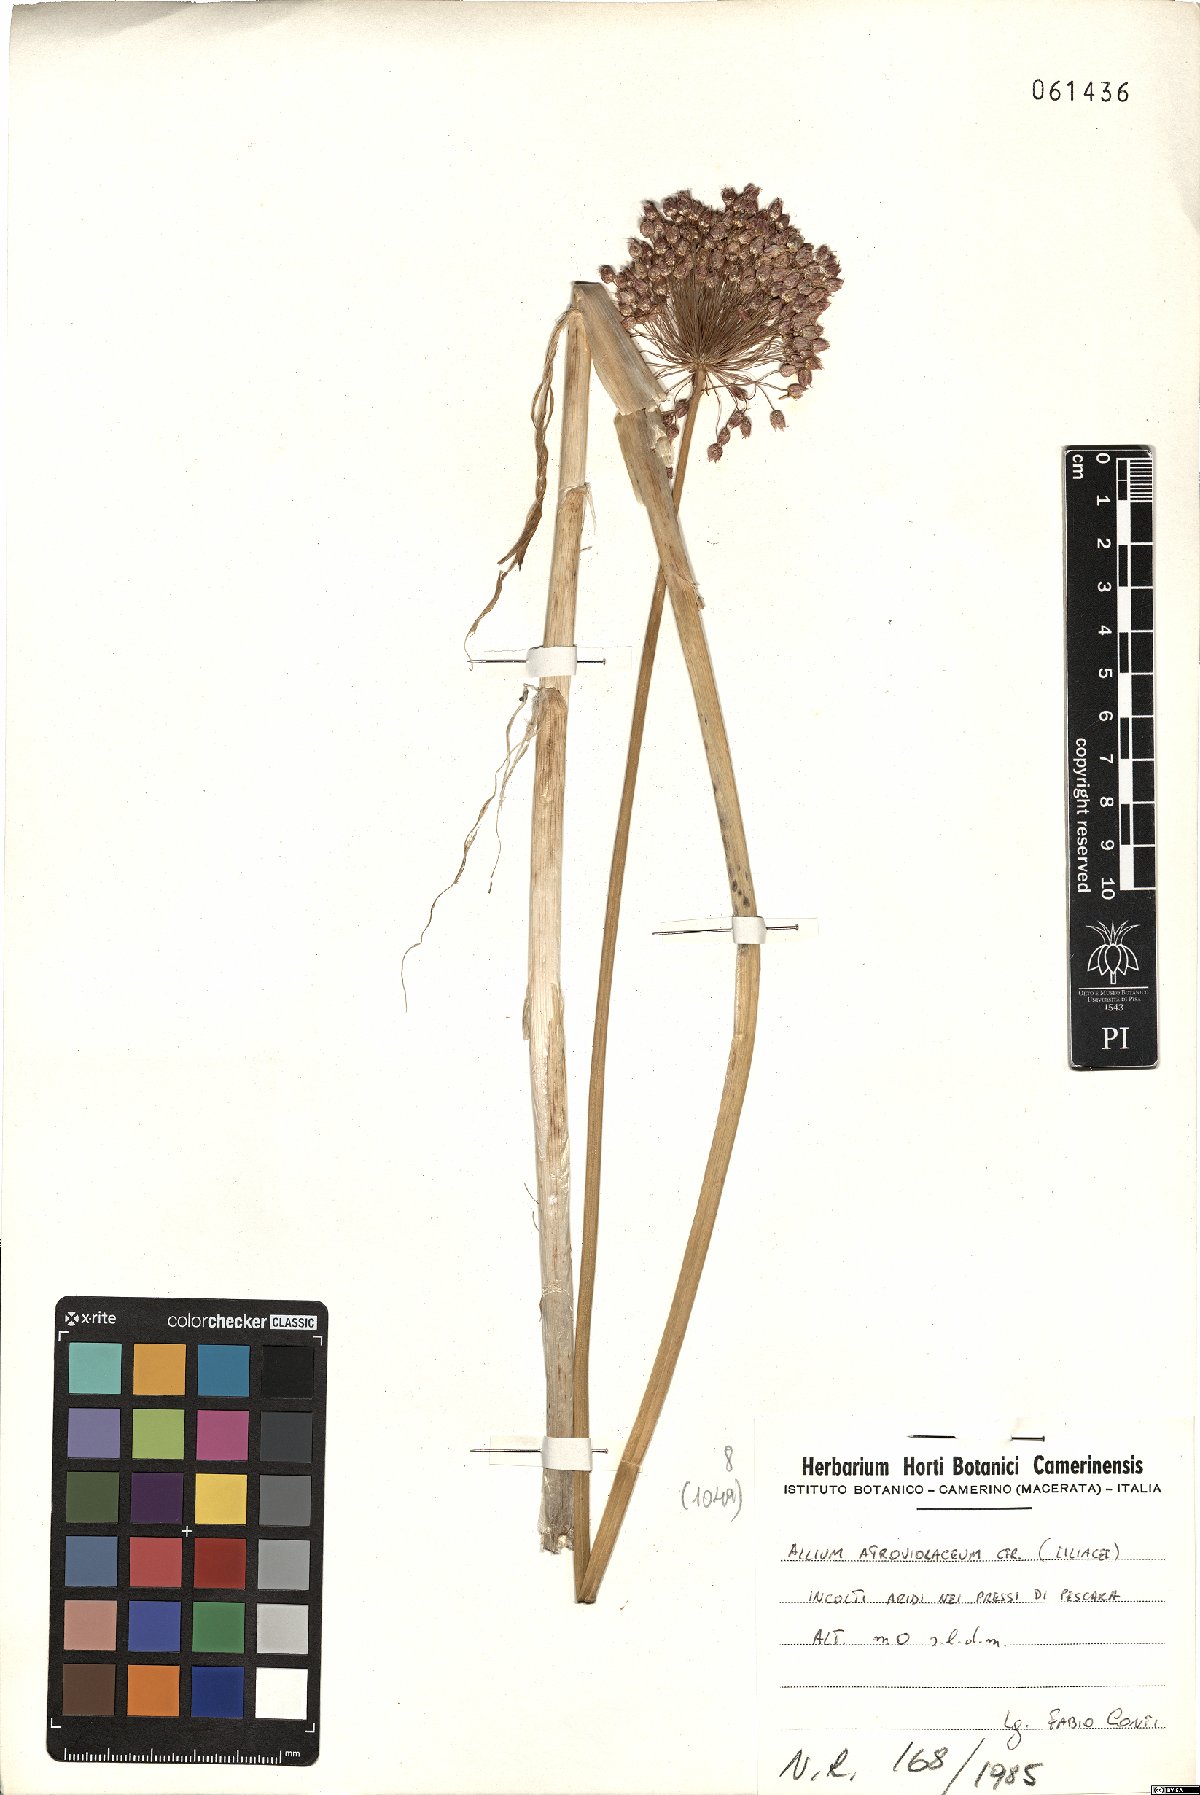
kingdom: Plantae
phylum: Tracheophyta
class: Liliopsida
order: Asparagales
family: Amaryllidaceae
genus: Allium
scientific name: Allium atroviolaceum
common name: Broadleaf wild leek
